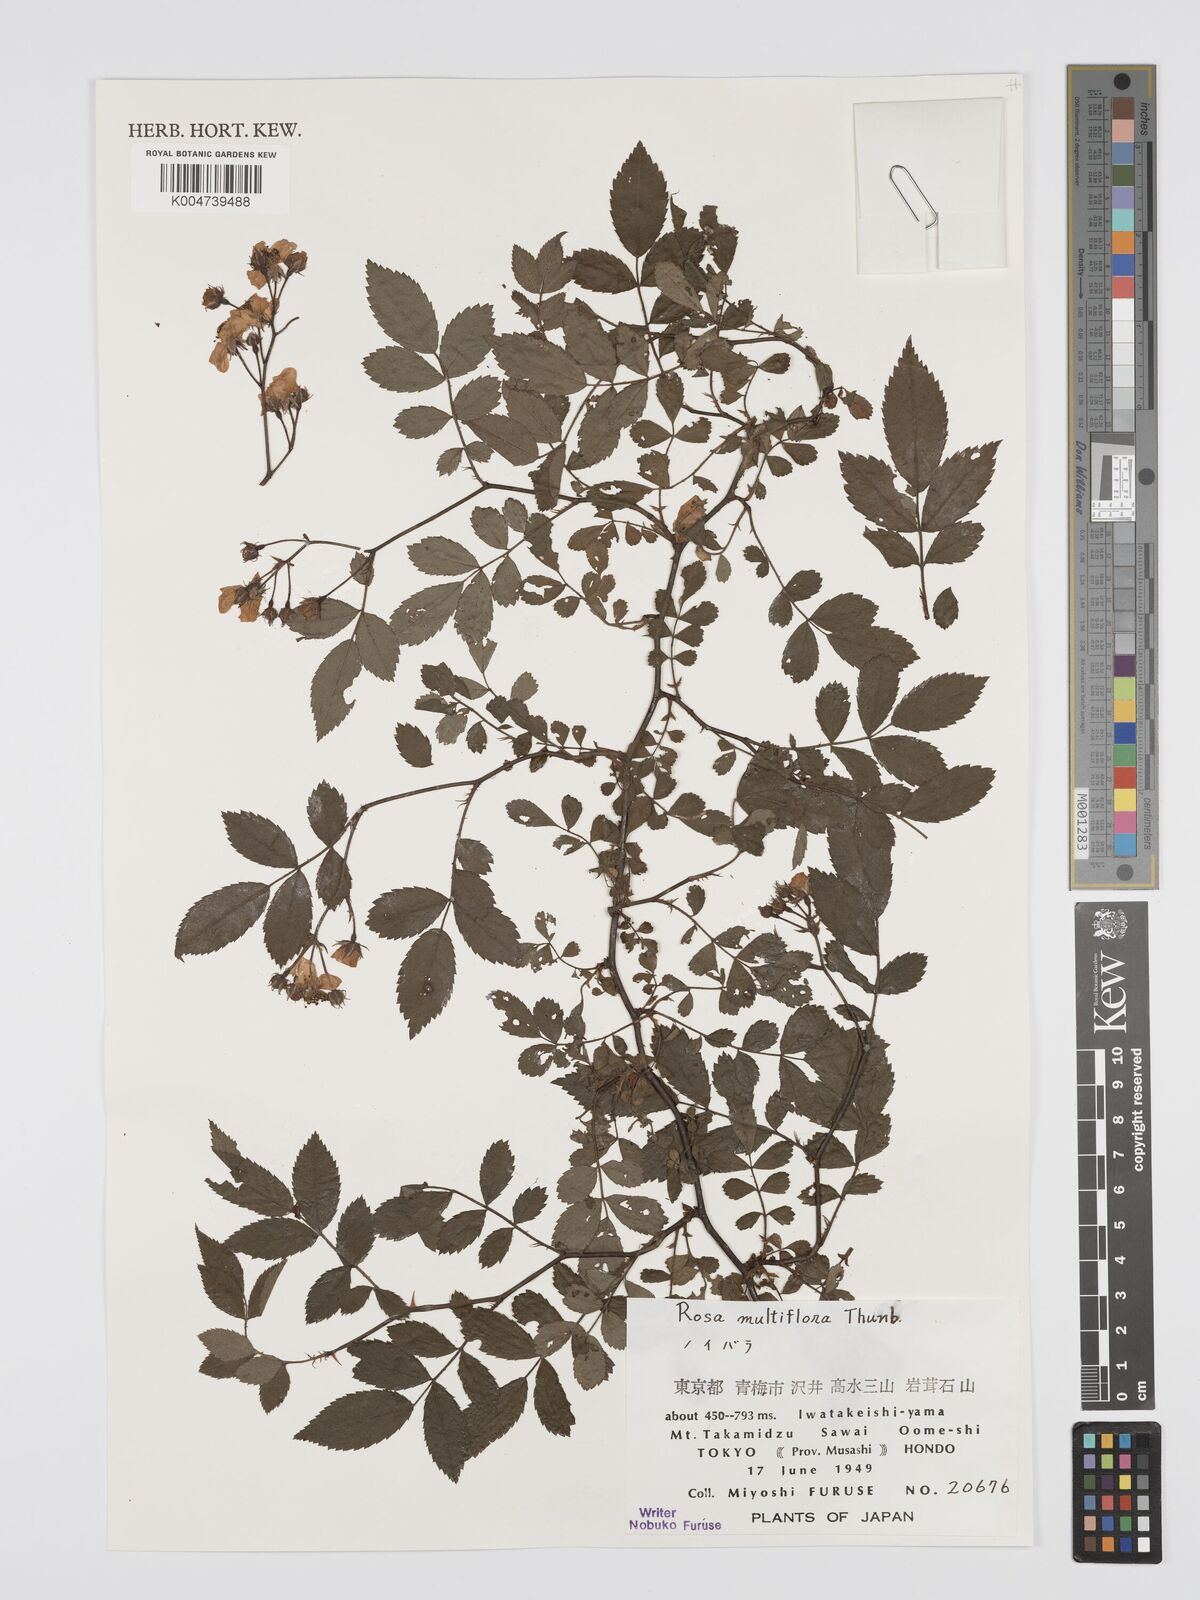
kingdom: Plantae
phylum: Tracheophyta
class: Magnoliopsida
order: Rosales
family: Rosaceae
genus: Rosa
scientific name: Rosa
